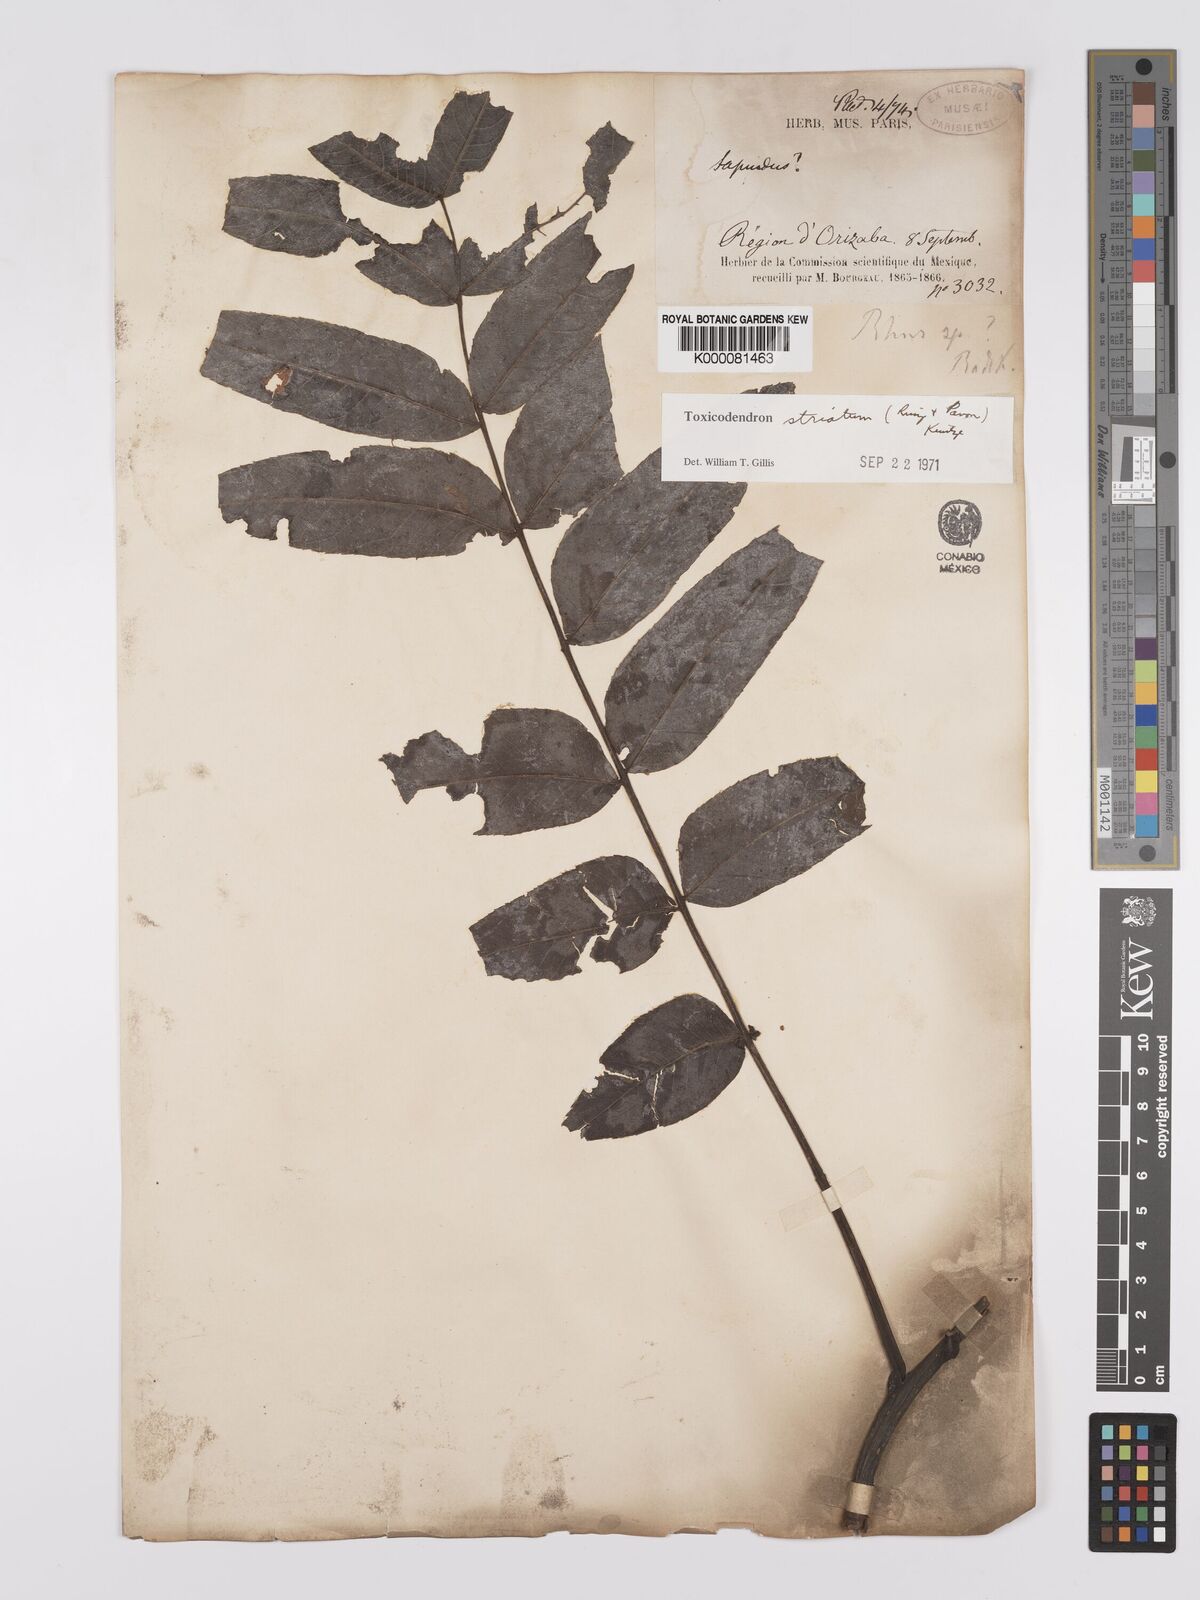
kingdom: Plantae
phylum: Tracheophyta
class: Magnoliopsida
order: Sapindales
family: Anacardiaceae
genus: Toxicodendron
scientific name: Toxicodendron striatum
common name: Sumac
